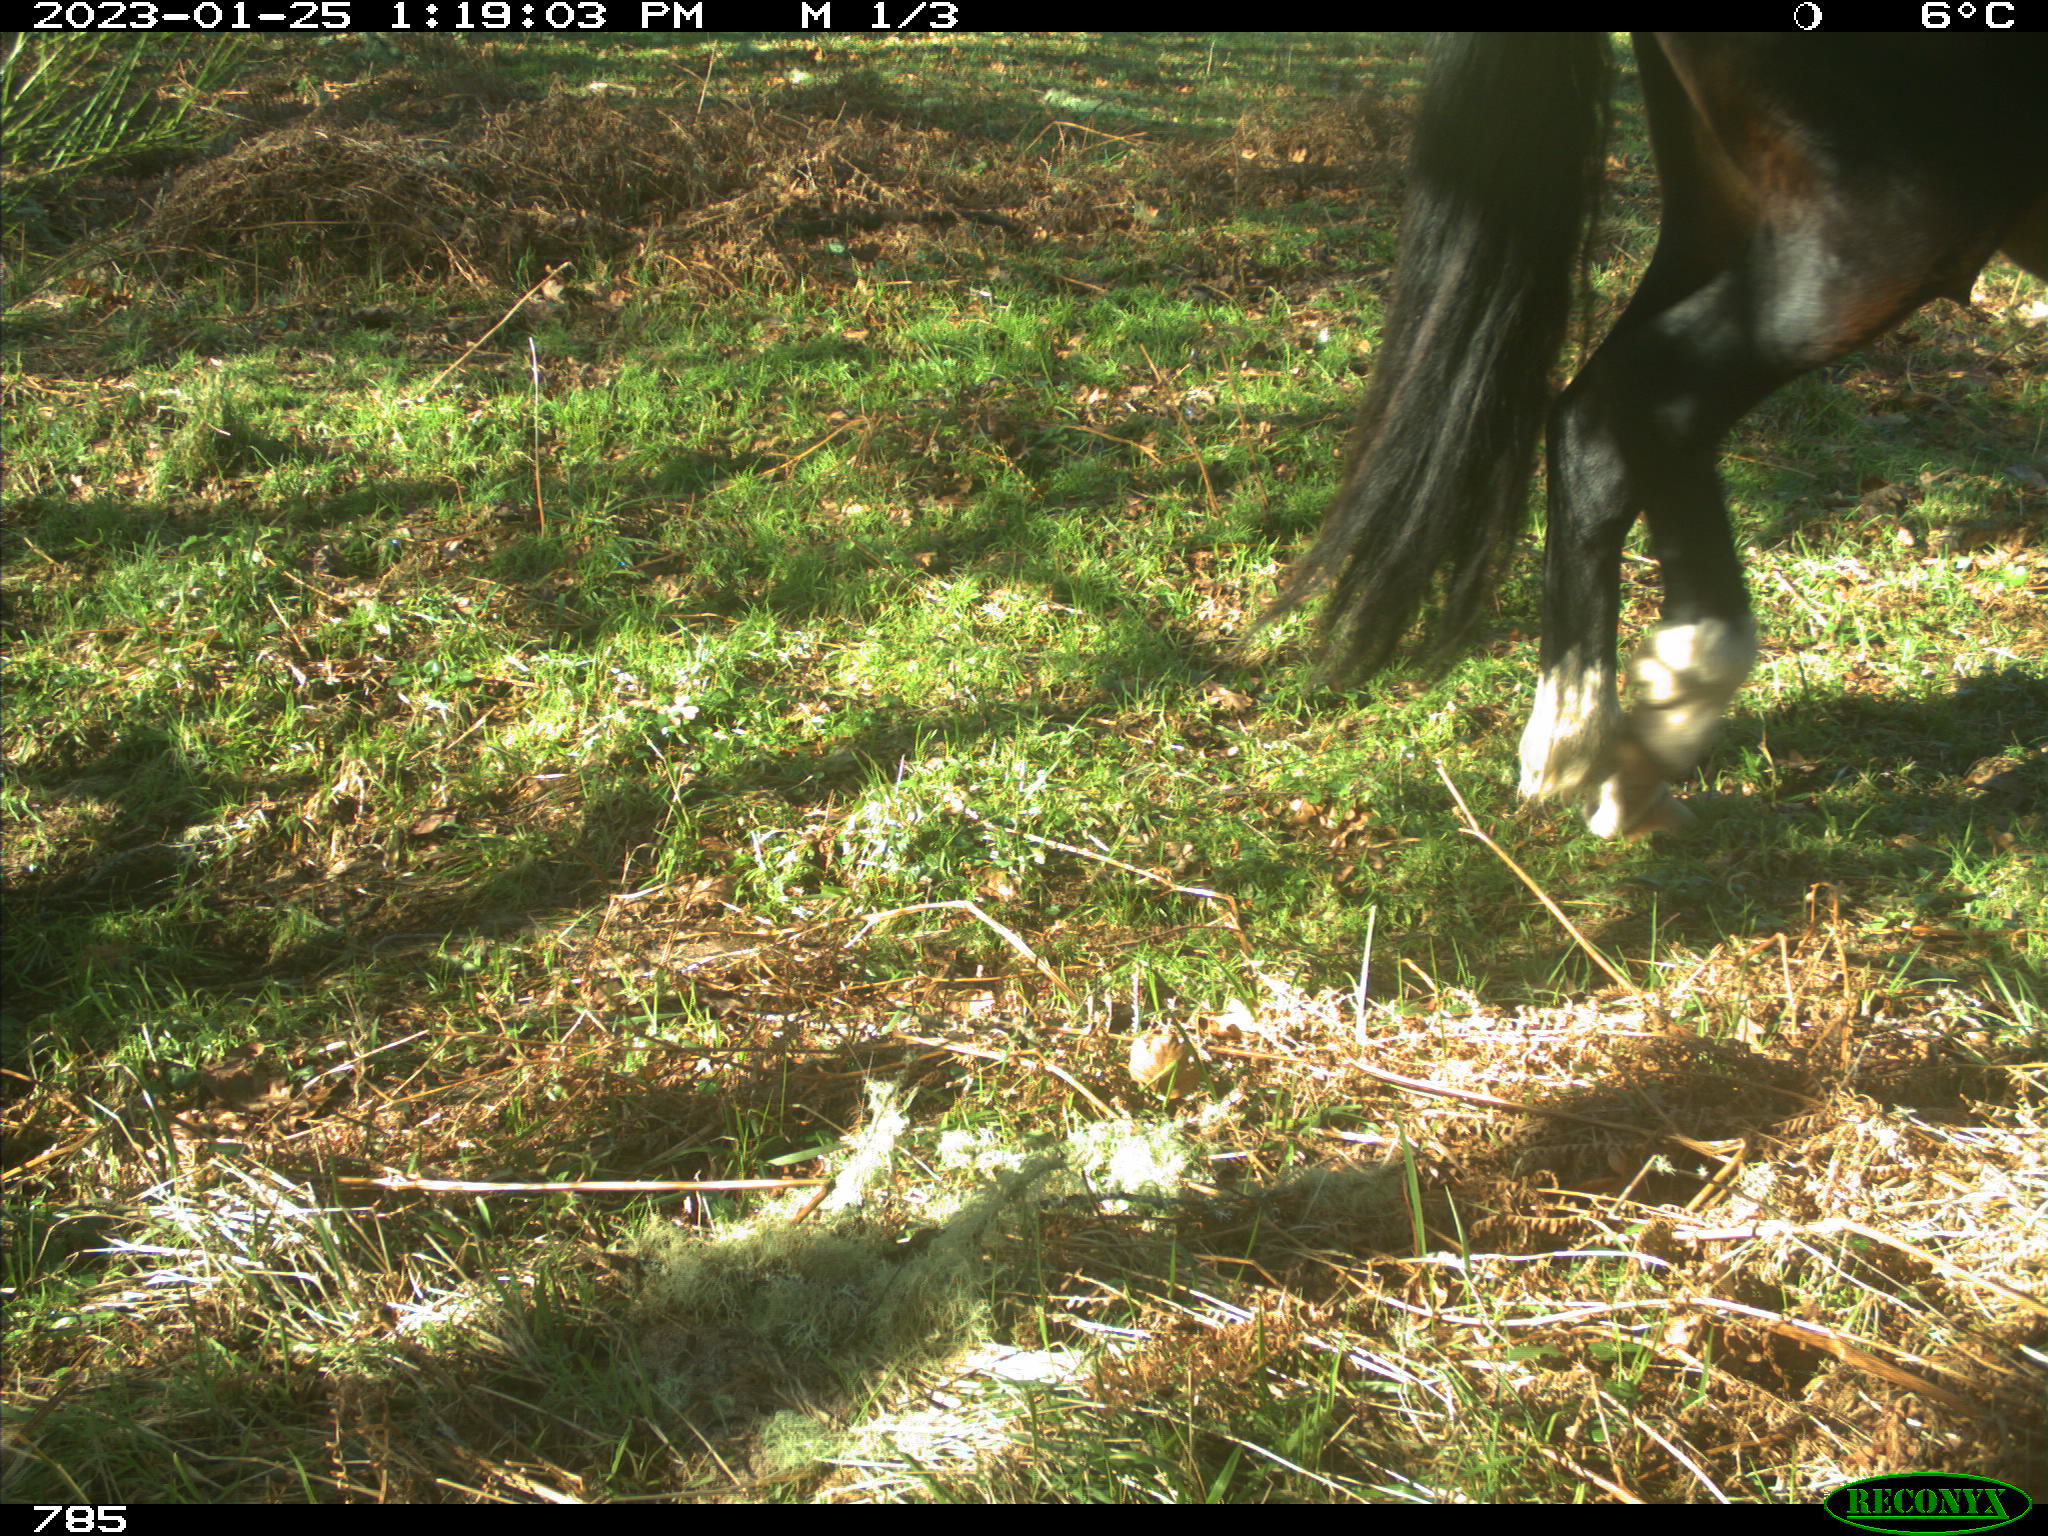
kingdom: Animalia
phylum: Chordata
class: Mammalia
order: Perissodactyla
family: Equidae
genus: Equus
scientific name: Equus caballus
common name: Horse
